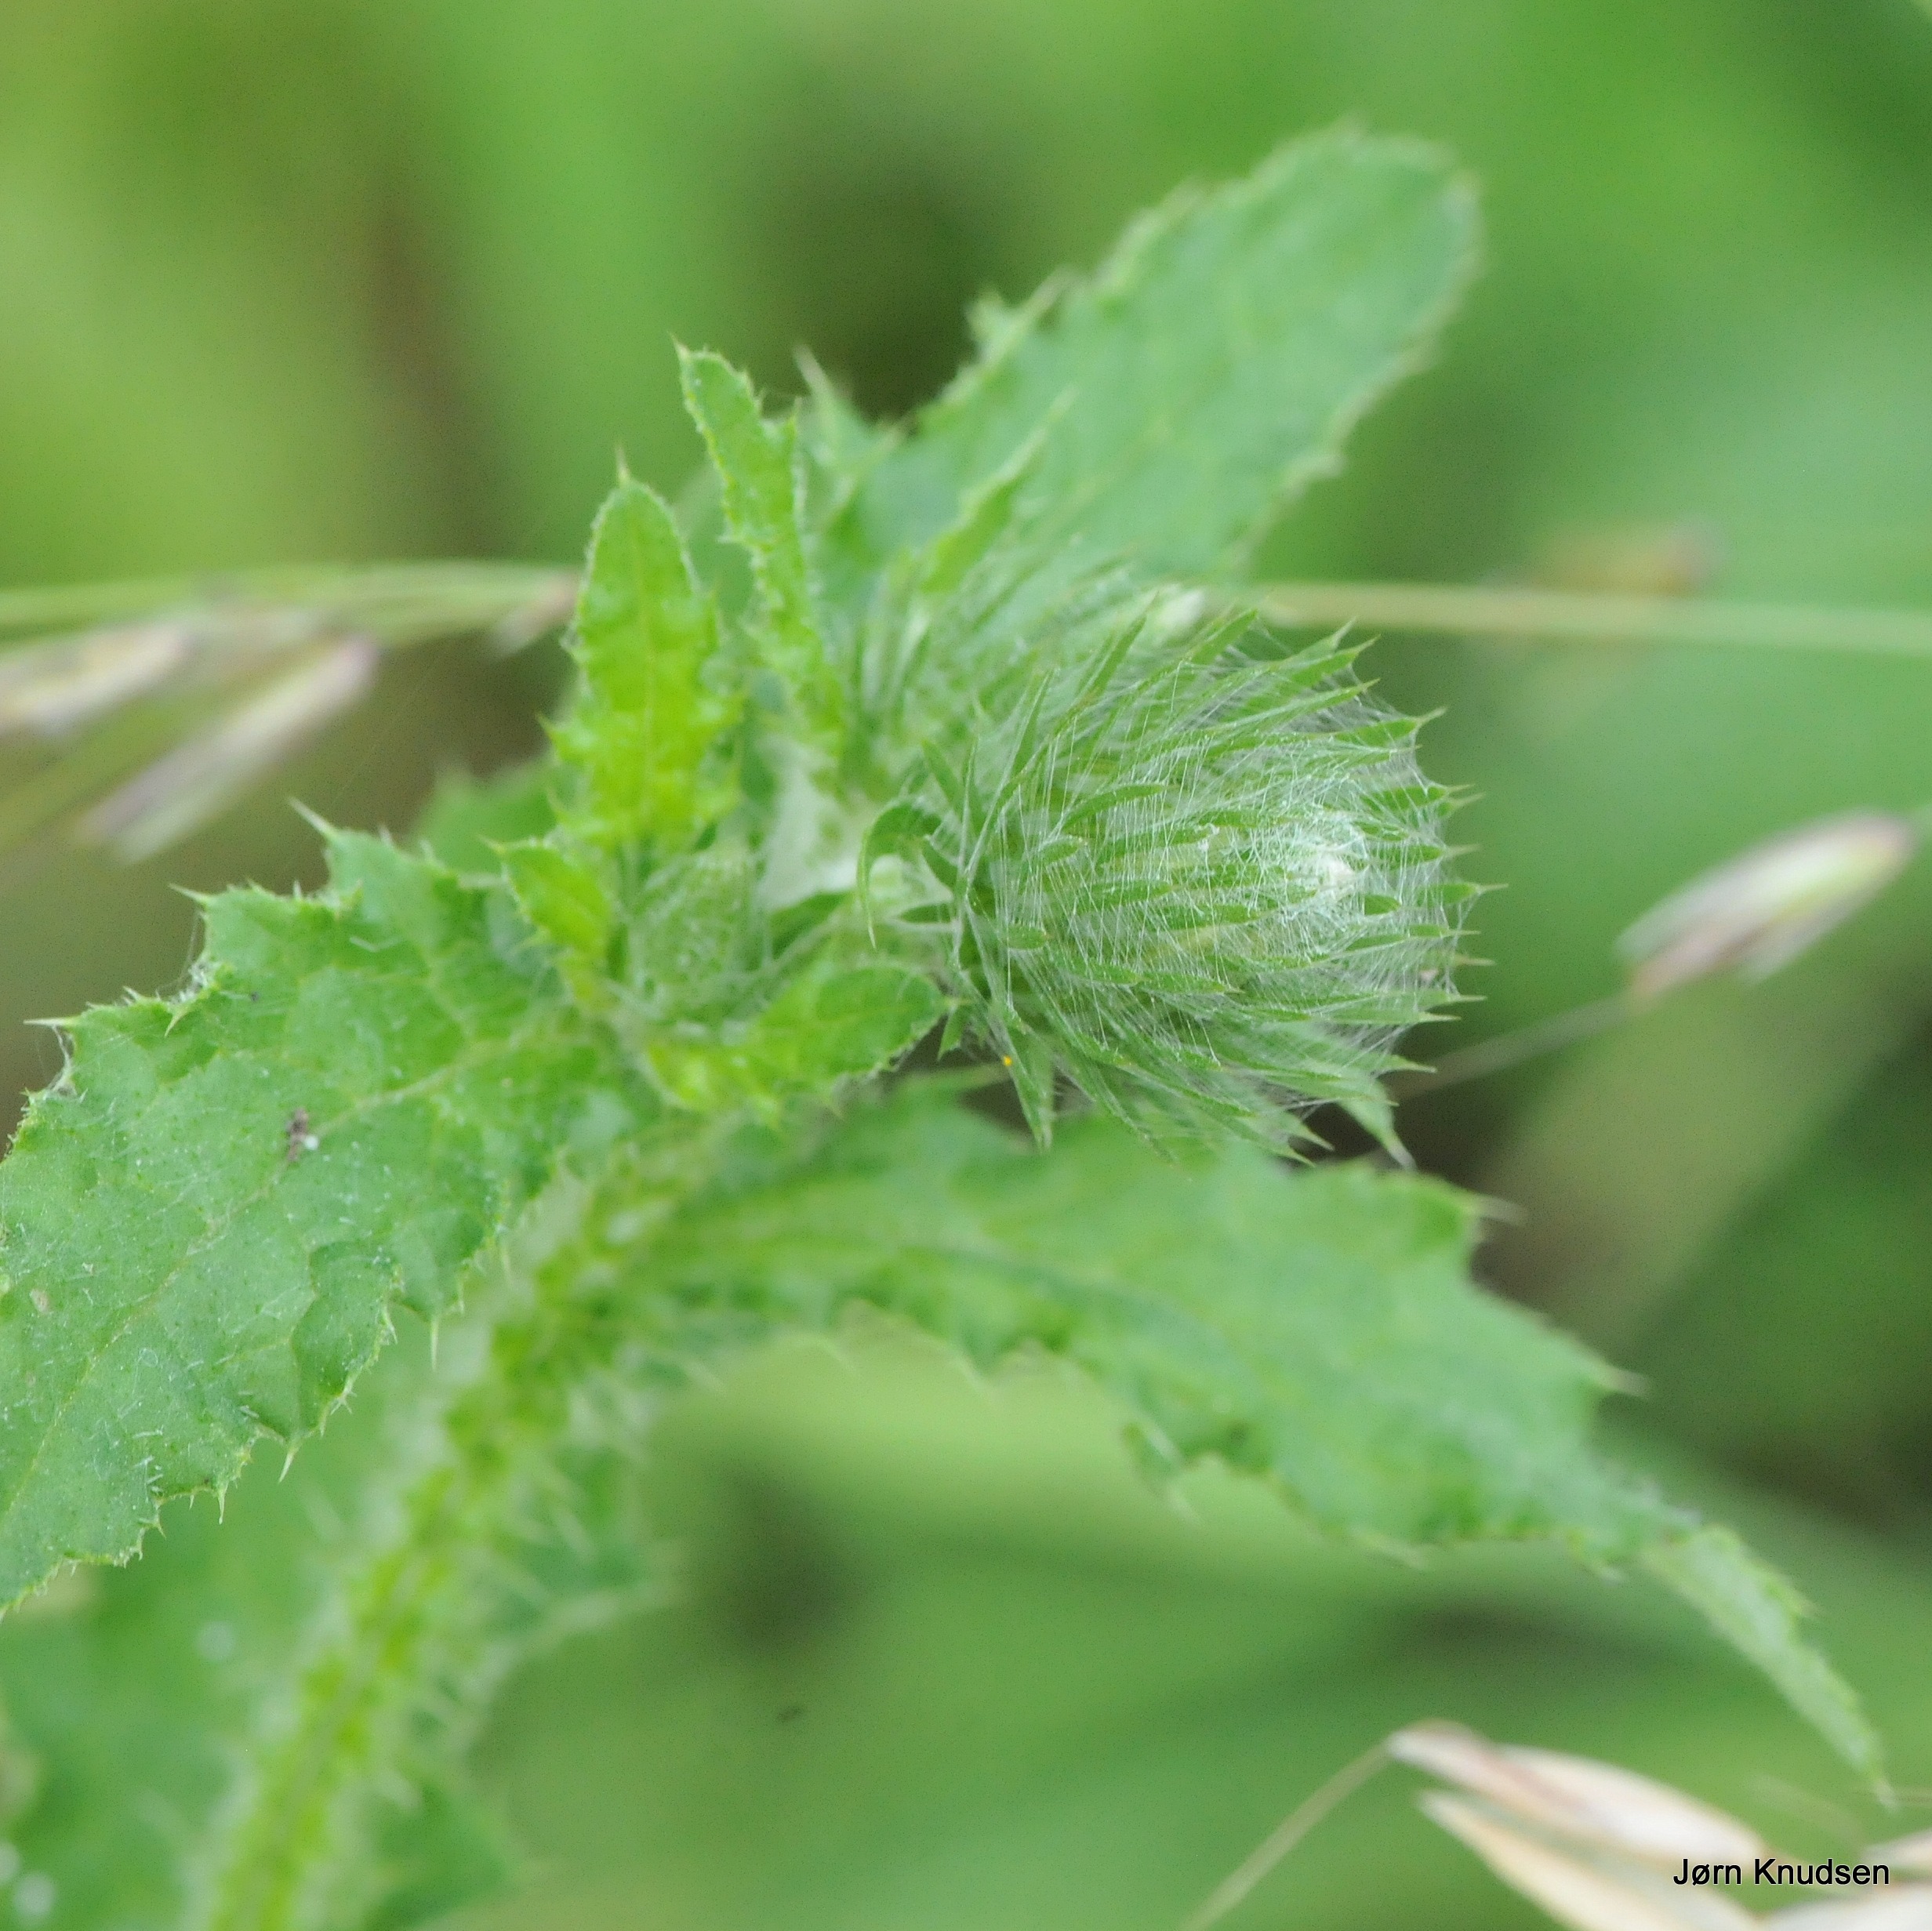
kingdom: Plantae
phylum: Tracheophyta
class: Magnoliopsida
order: Asterales
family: Asteraceae
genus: Carduus
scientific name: Carduus crispus
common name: Kruset tidsel
